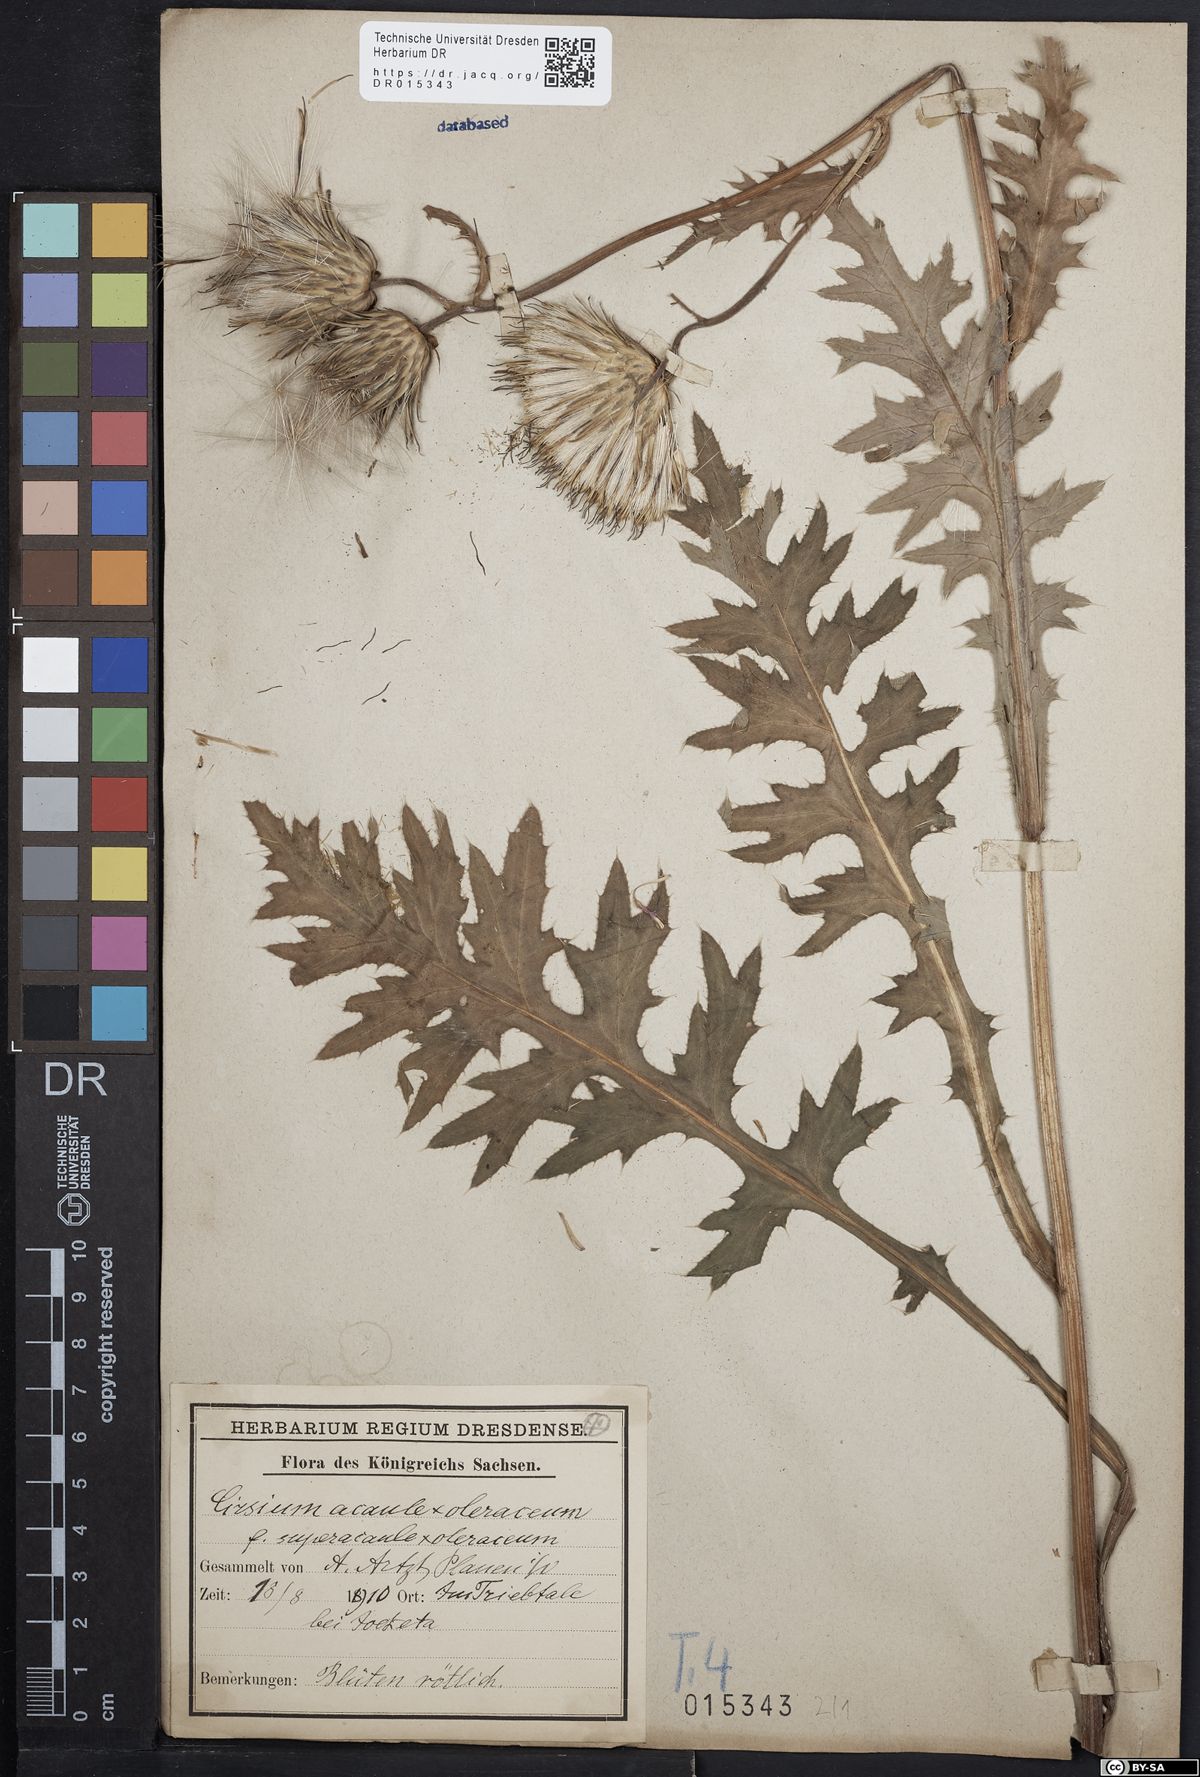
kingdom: Plantae
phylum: Tracheophyta
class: Magnoliopsida
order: Asterales
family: Asteraceae
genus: Cirsium
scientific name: Cirsium rigens
